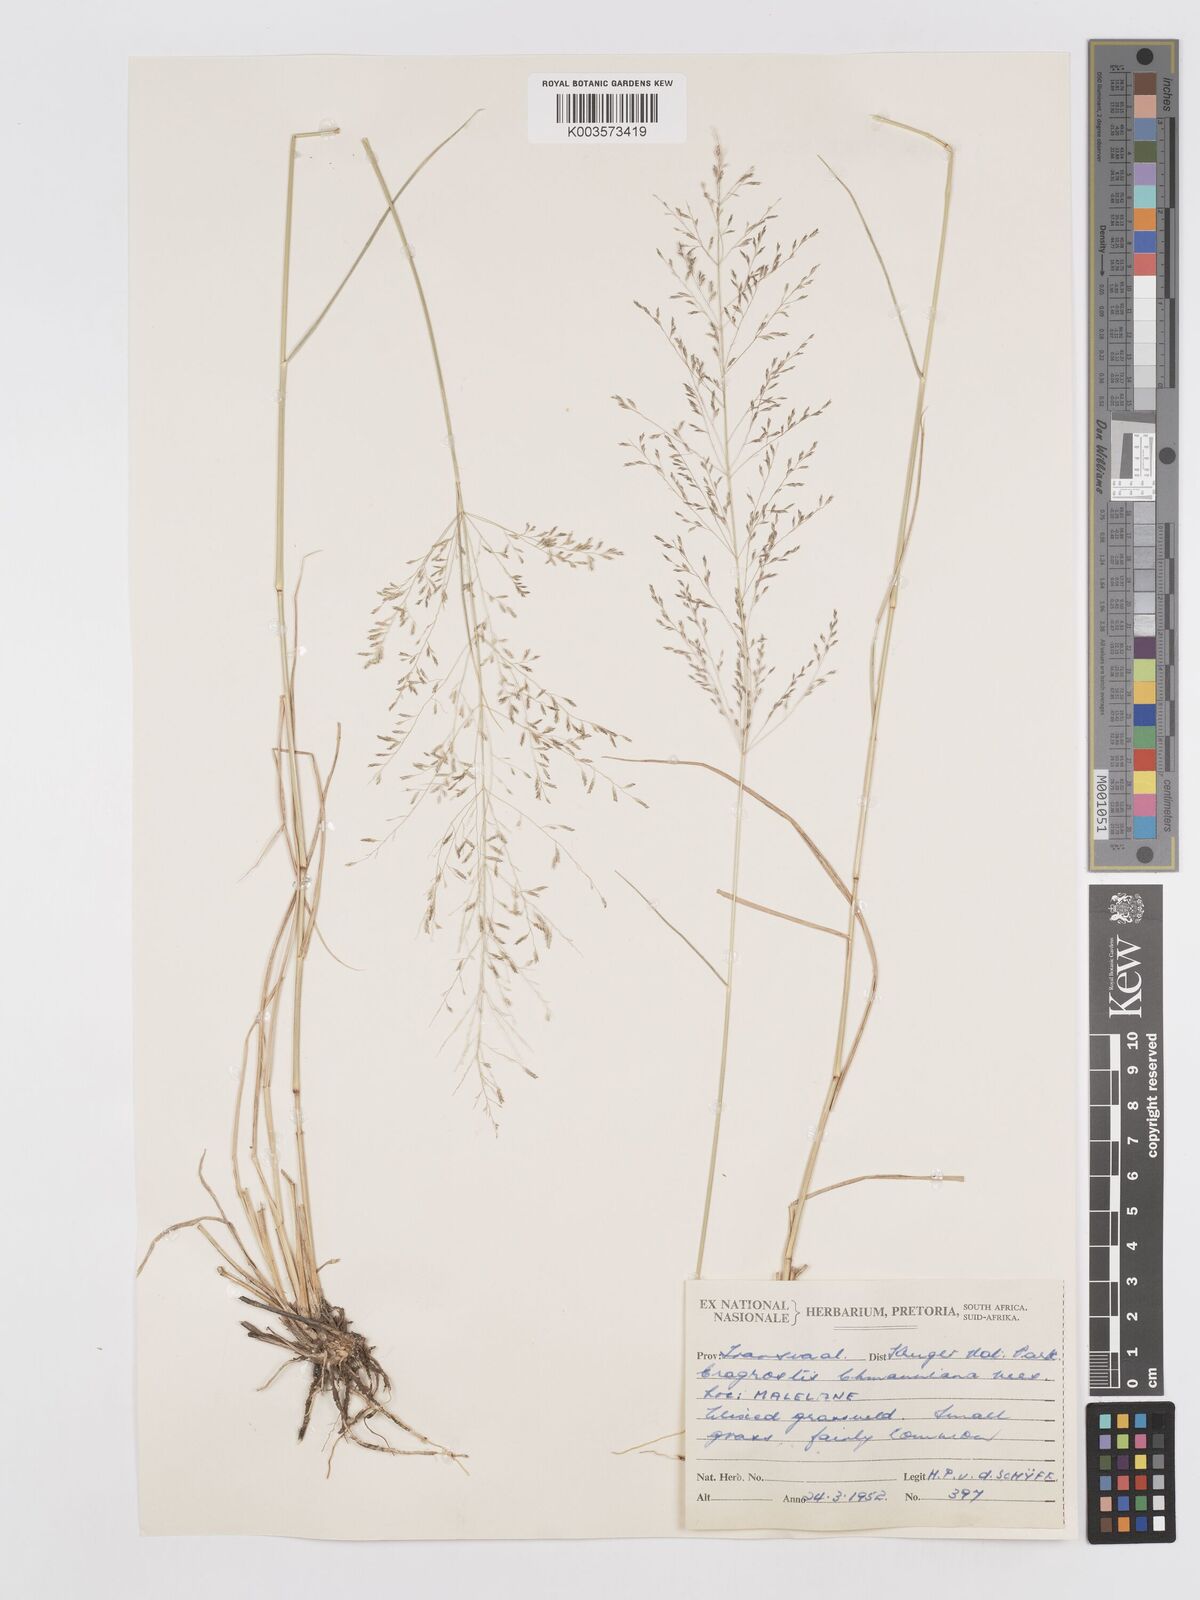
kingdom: Plantae
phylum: Tracheophyta
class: Liliopsida
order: Poales
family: Poaceae
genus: Eragrostis
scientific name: Eragrostis lehmanniana
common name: Lehmann lovegrass
